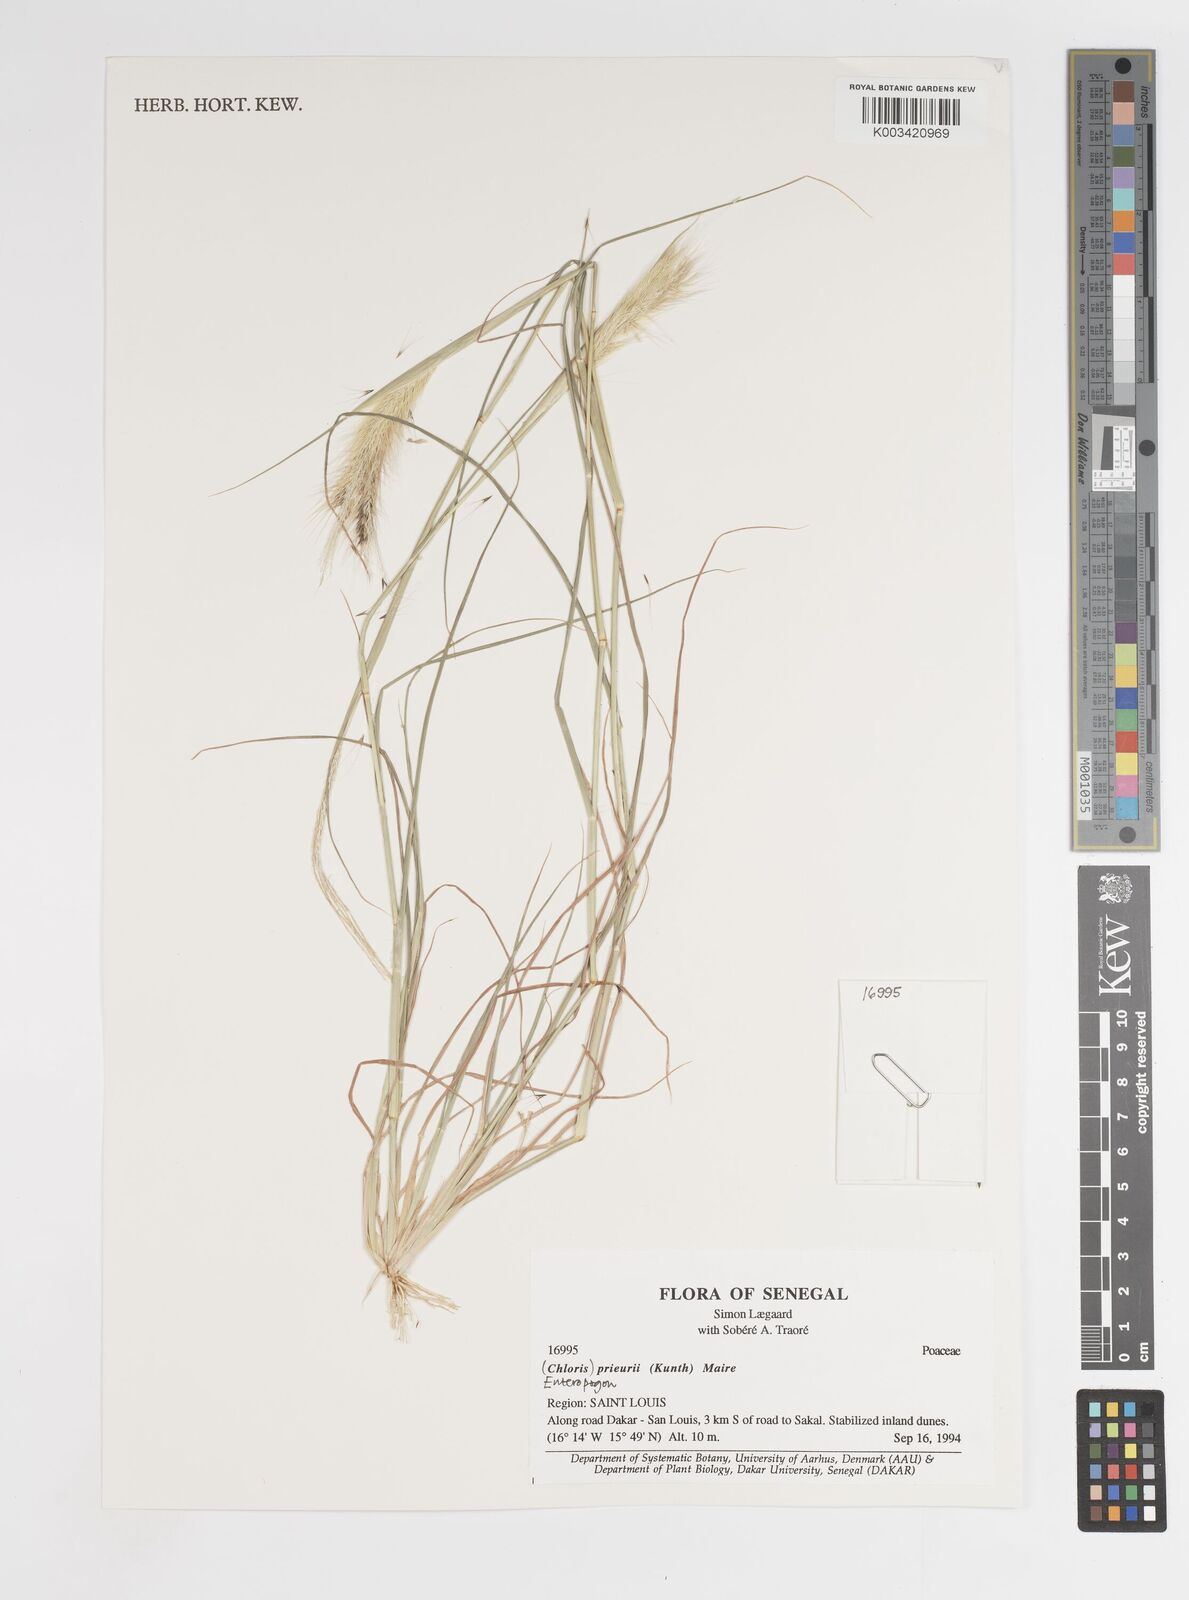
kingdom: Plantae
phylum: Tracheophyta
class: Liliopsida
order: Poales
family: Poaceae
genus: Enteropogon
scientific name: Enteropogon prieurii
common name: Prieur's umbrellagrass
